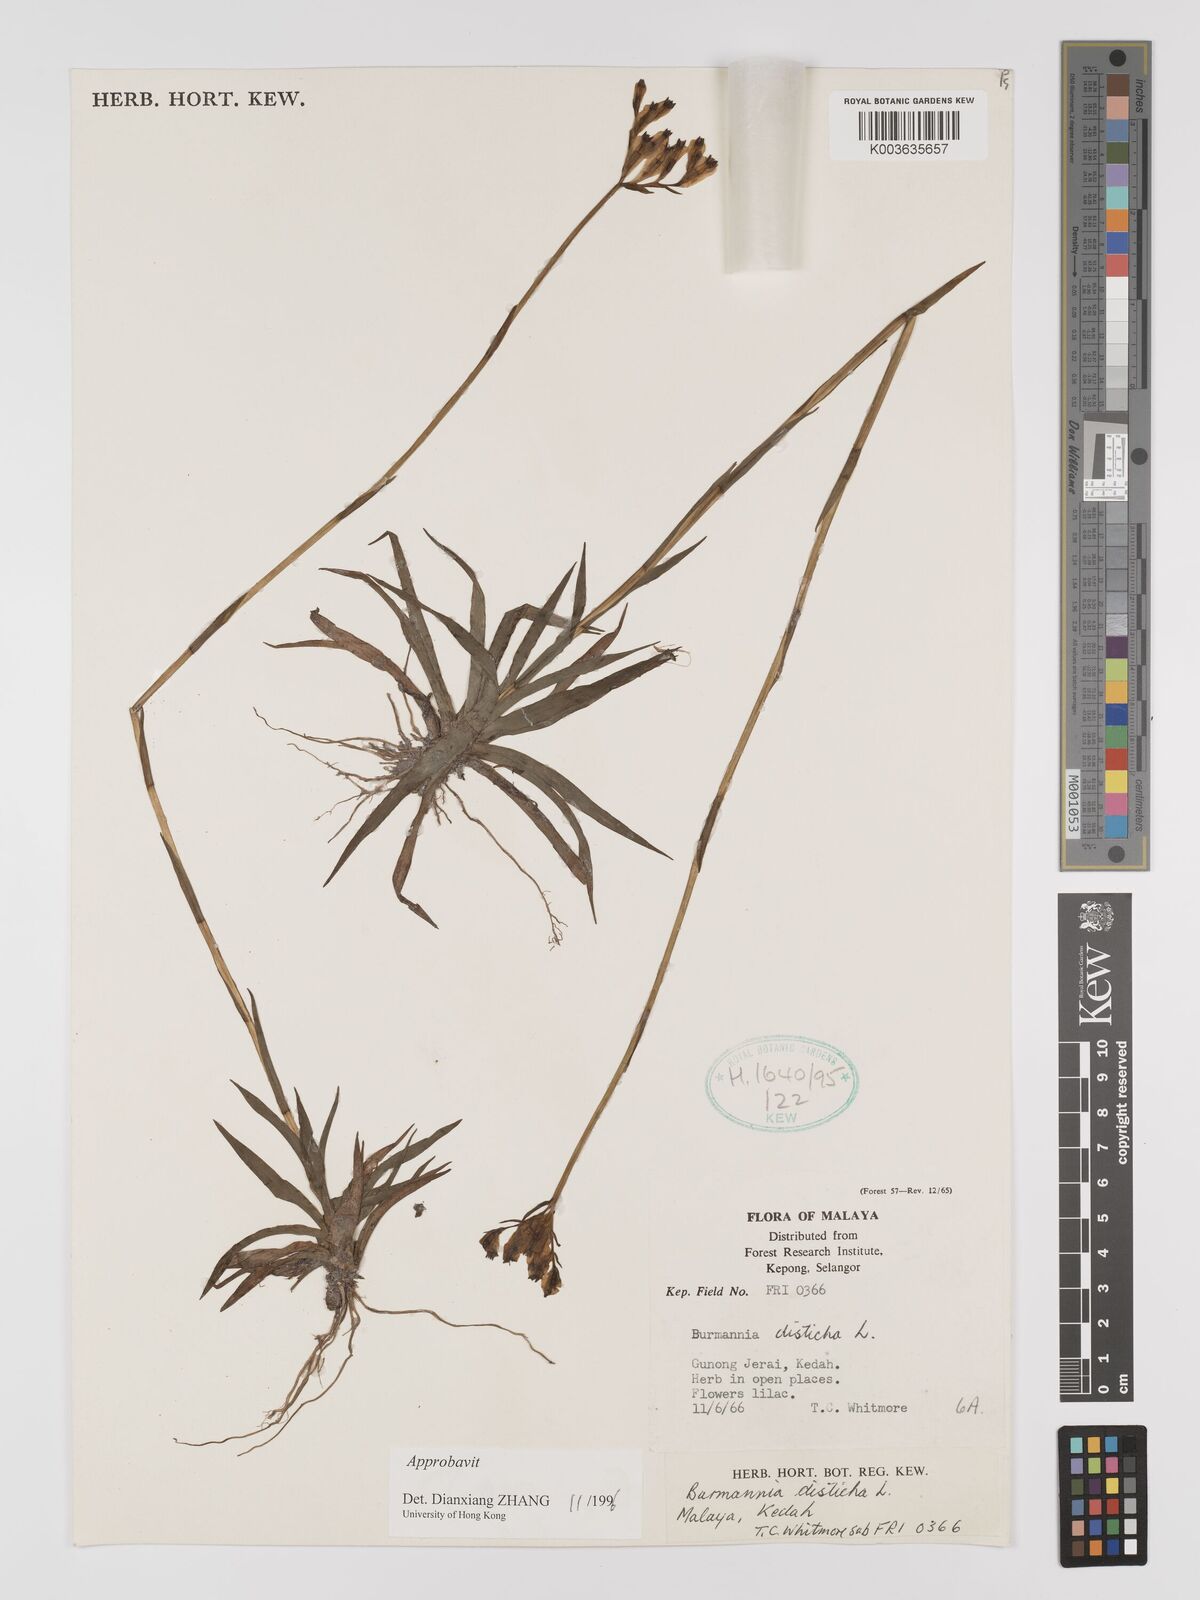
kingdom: Plantae
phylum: Tracheophyta
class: Liliopsida
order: Dioscoreales
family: Burmanniaceae
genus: Burmannia
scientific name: Burmannia disticha
